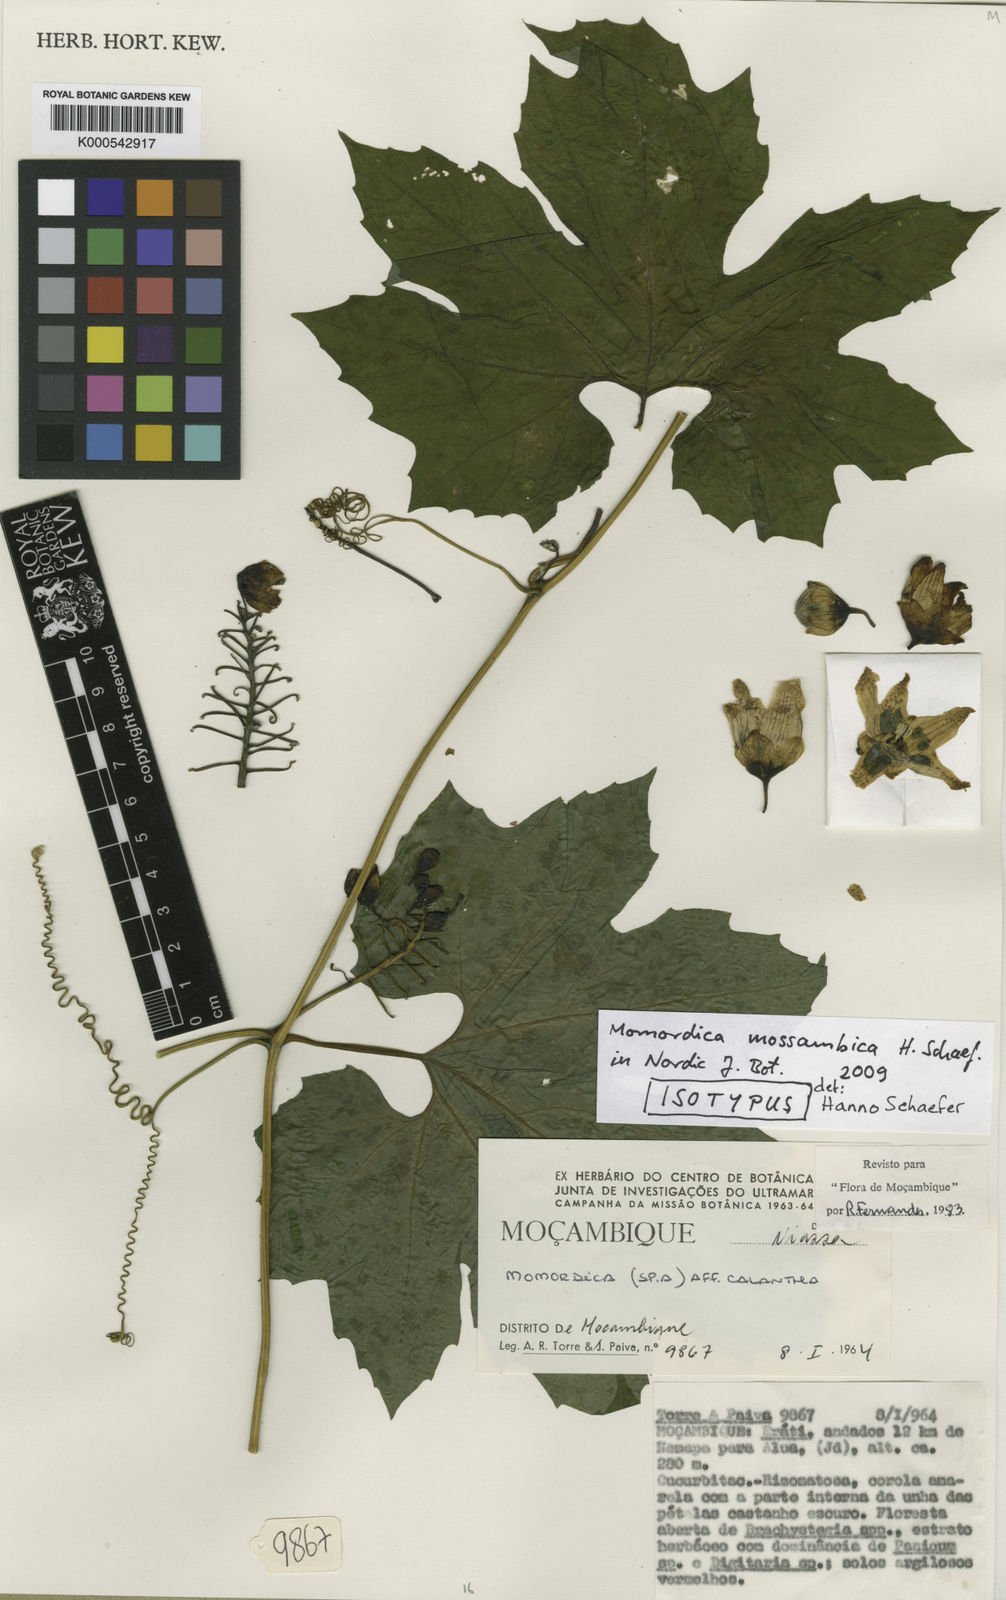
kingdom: Plantae
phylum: Tracheophyta
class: Magnoliopsida
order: Cucurbitales
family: Cucurbitaceae
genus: Momordica
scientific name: Momordica mossambica
